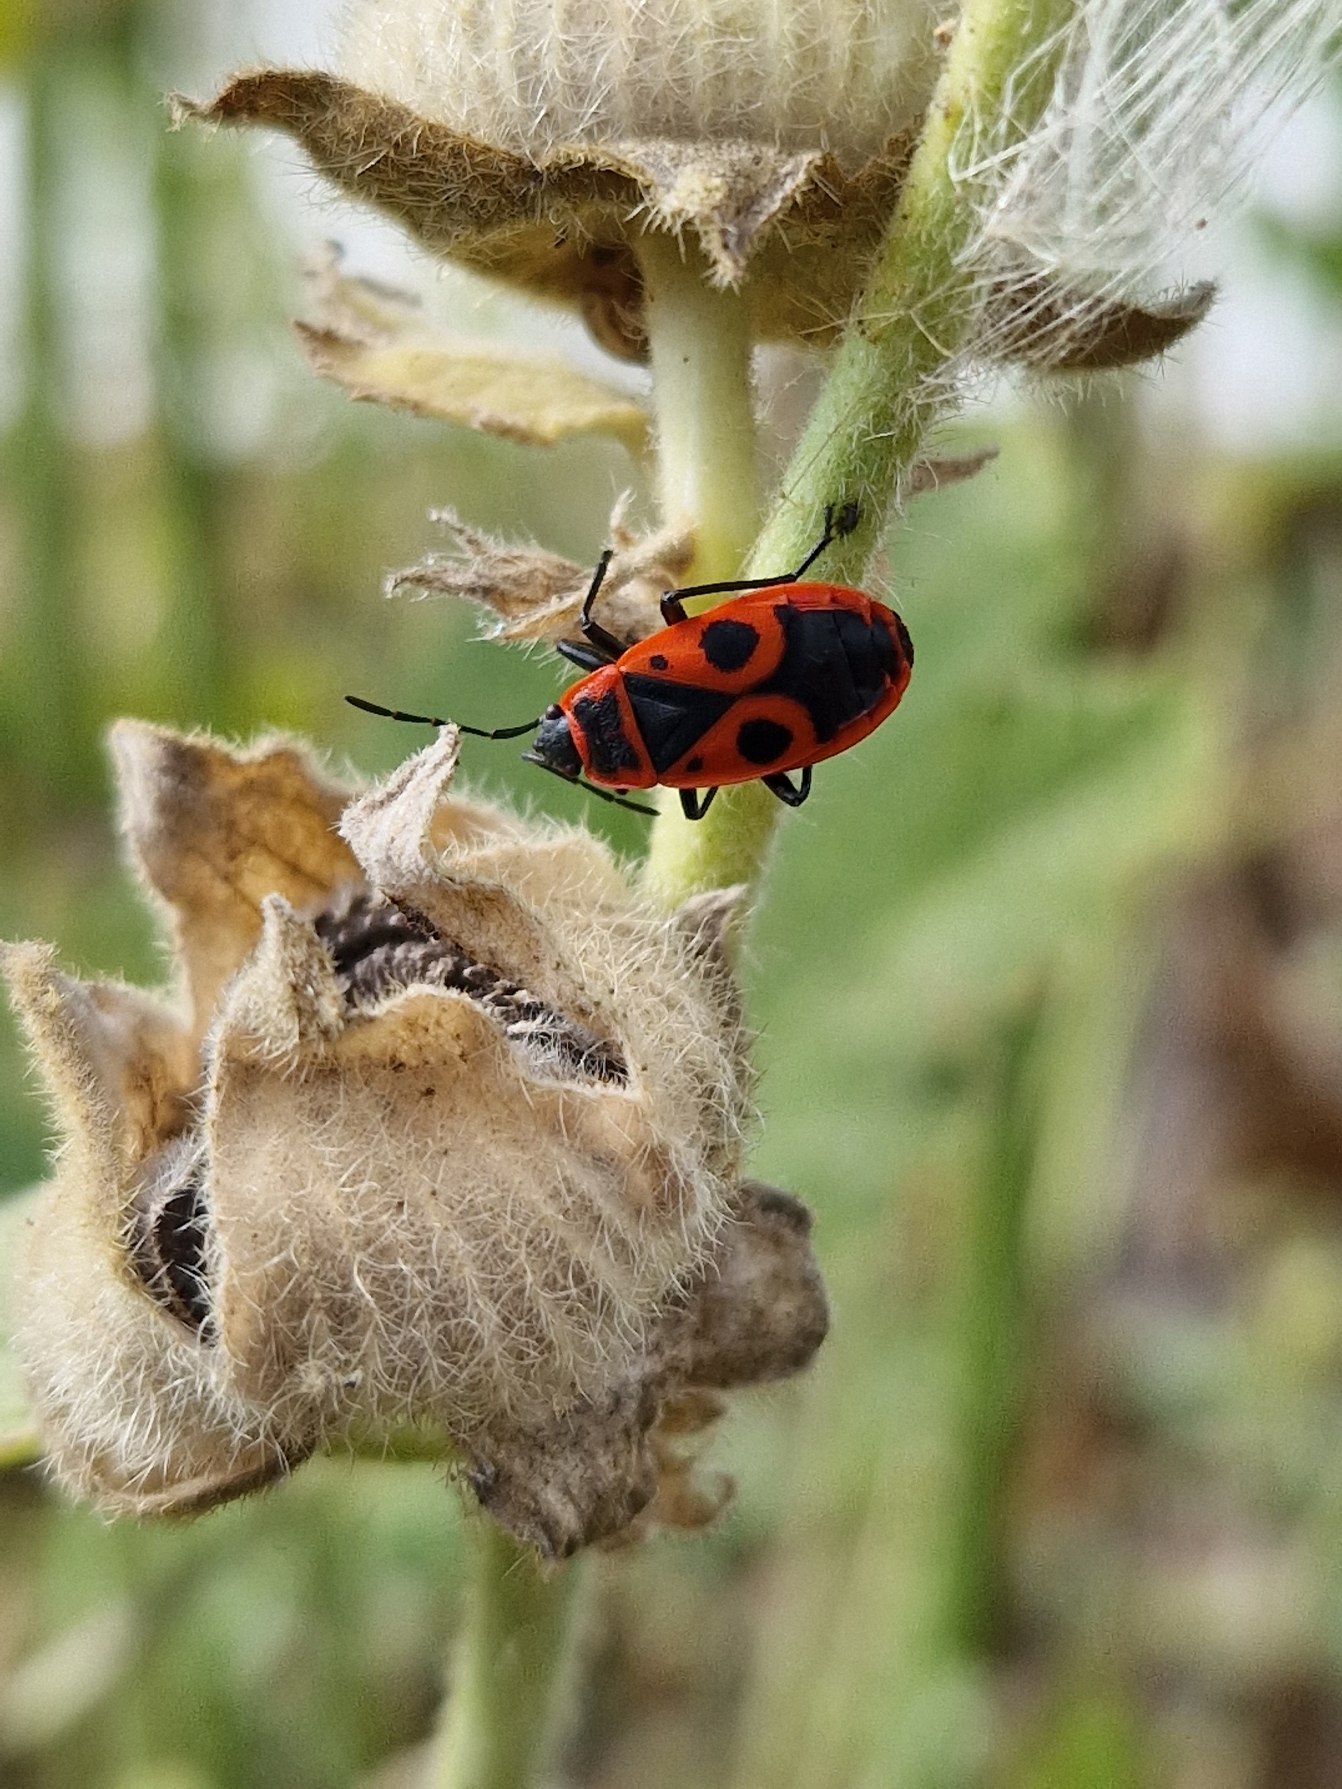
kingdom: Animalia
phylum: Arthropoda
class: Insecta
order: Hemiptera
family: Pyrrhocoridae
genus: Pyrrhocoris
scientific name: Pyrrhocoris apterus
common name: Ildtæge
